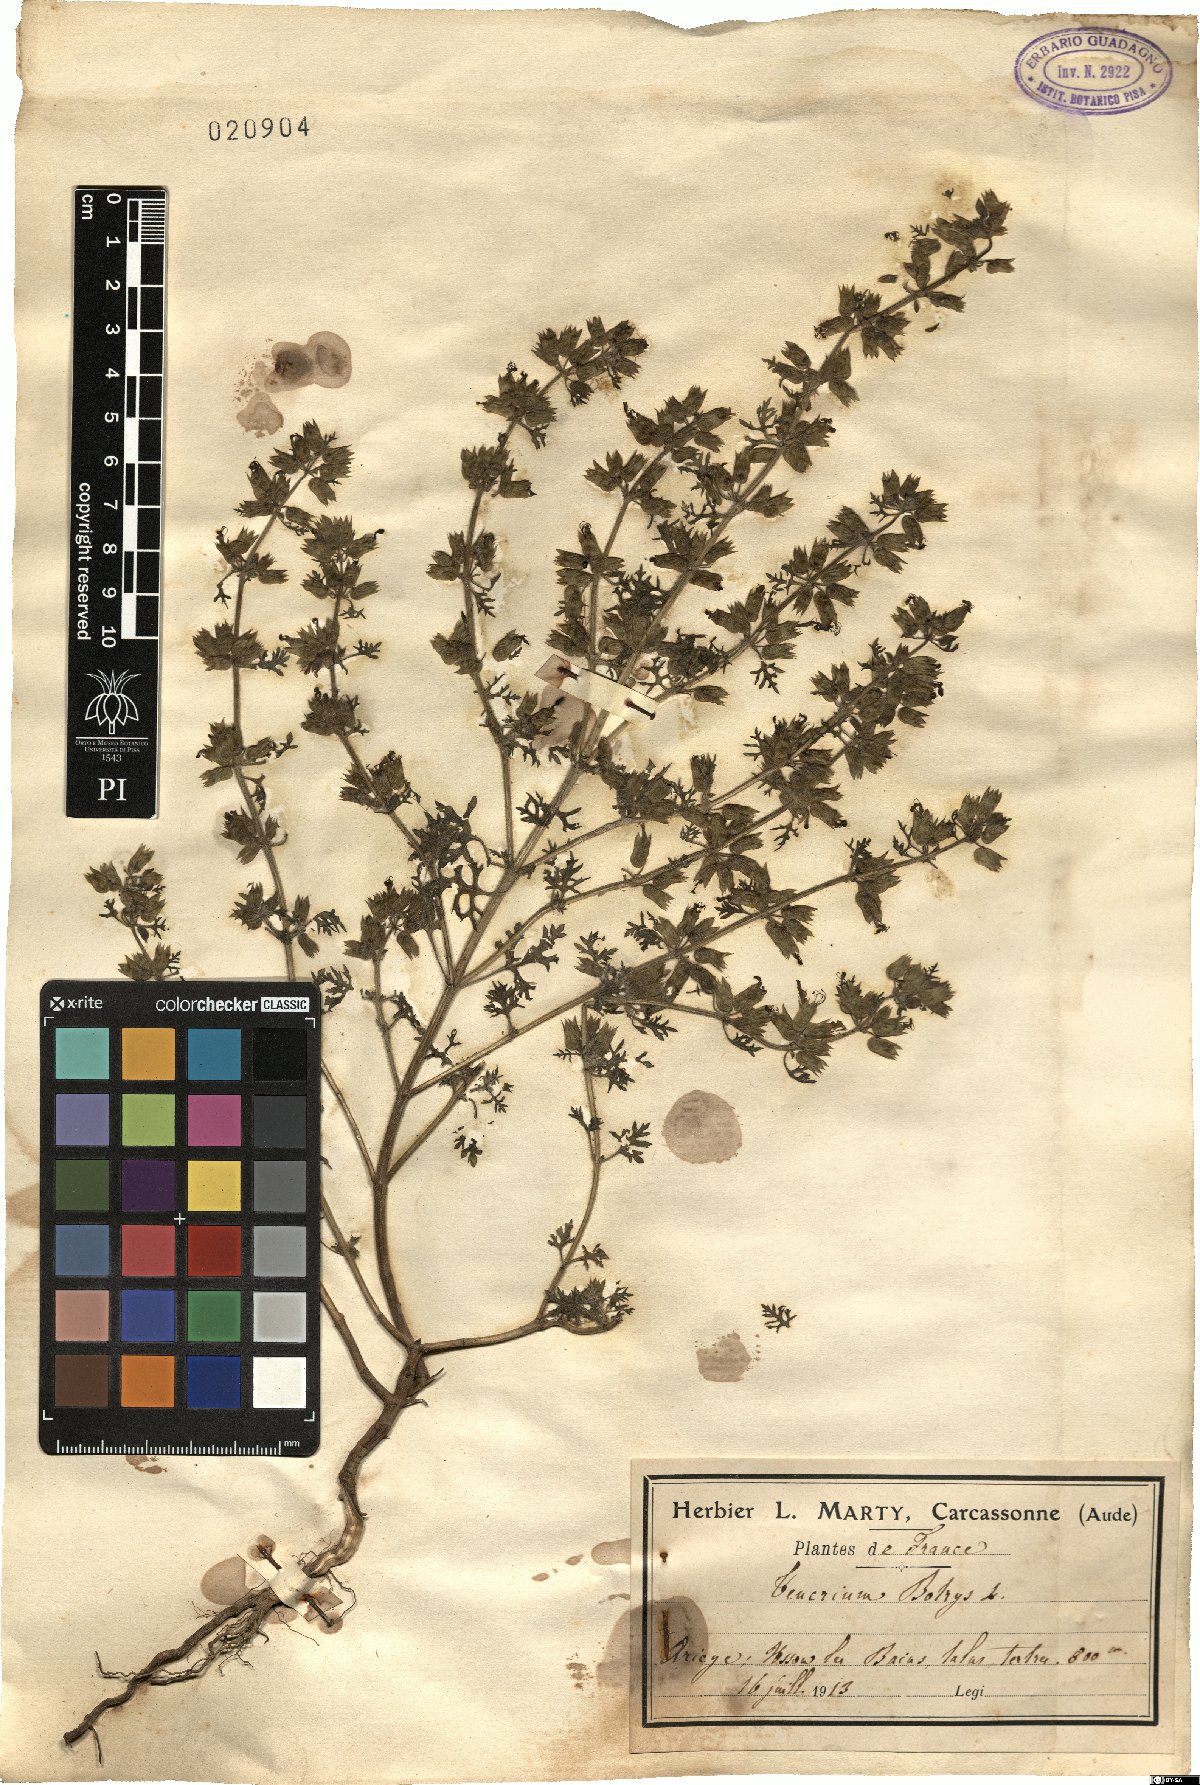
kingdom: Plantae
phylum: Tracheophyta
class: Magnoliopsida
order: Lamiales
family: Lamiaceae
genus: Teucrium
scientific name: Teucrium botrys
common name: Cut-leaved germander
